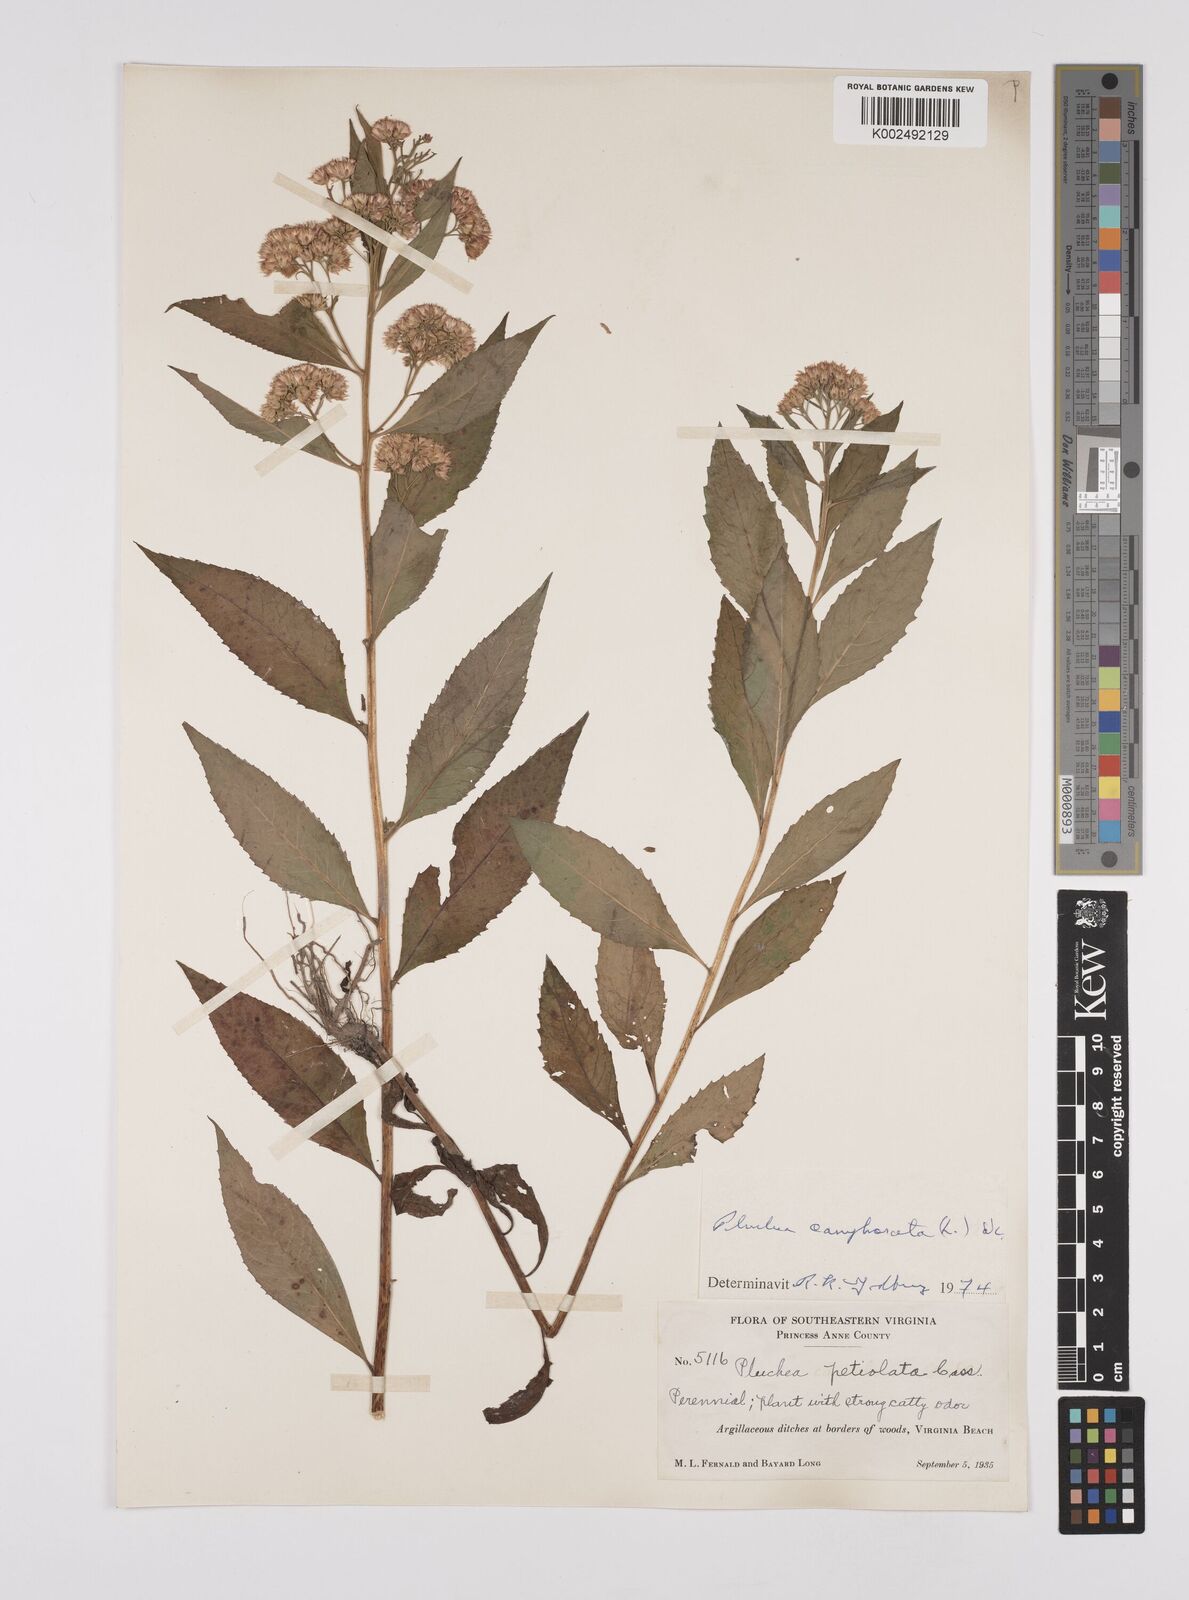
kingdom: Plantae
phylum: Tracheophyta
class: Magnoliopsida
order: Asterales
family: Asteraceae
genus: Pluchea
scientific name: Pluchea camphorata
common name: Camphor pluchea
